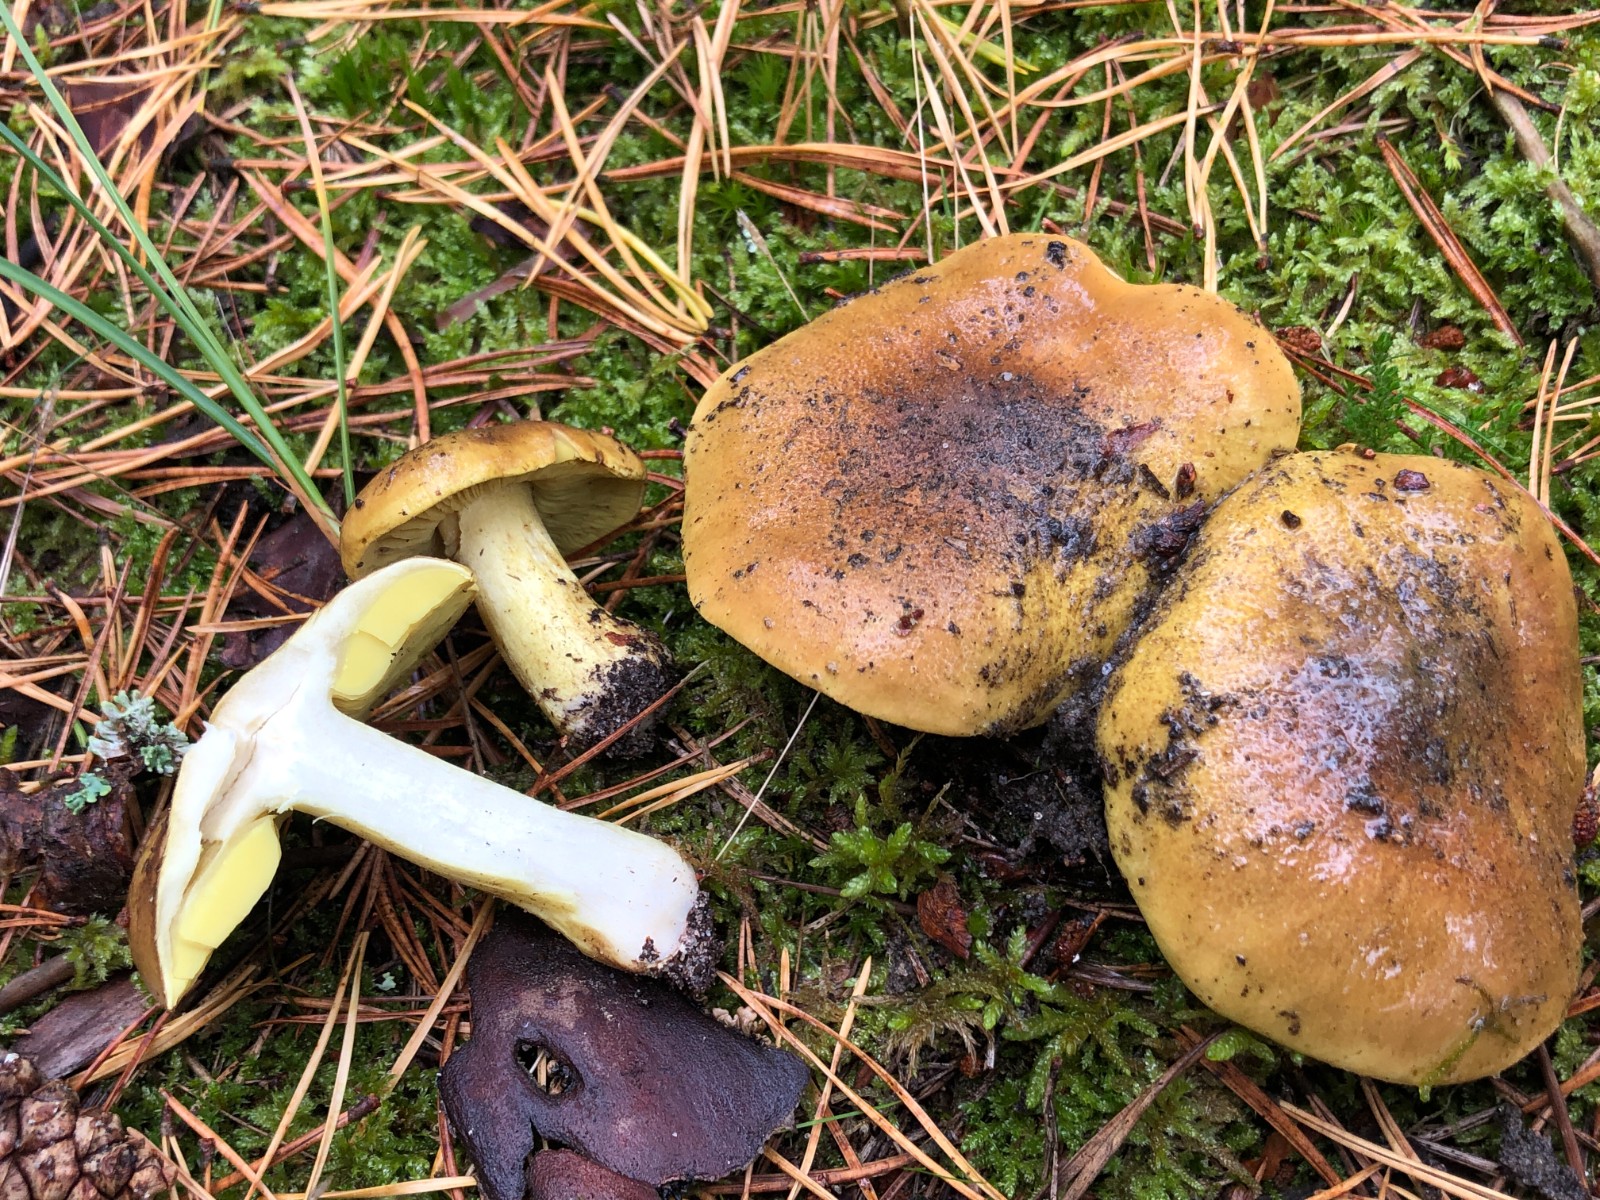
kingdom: Fungi
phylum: Basidiomycota
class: Agaricomycetes
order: Agaricales
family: Tricholomataceae
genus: Tricholoma
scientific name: Tricholoma equestre
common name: ægte ridderhat
